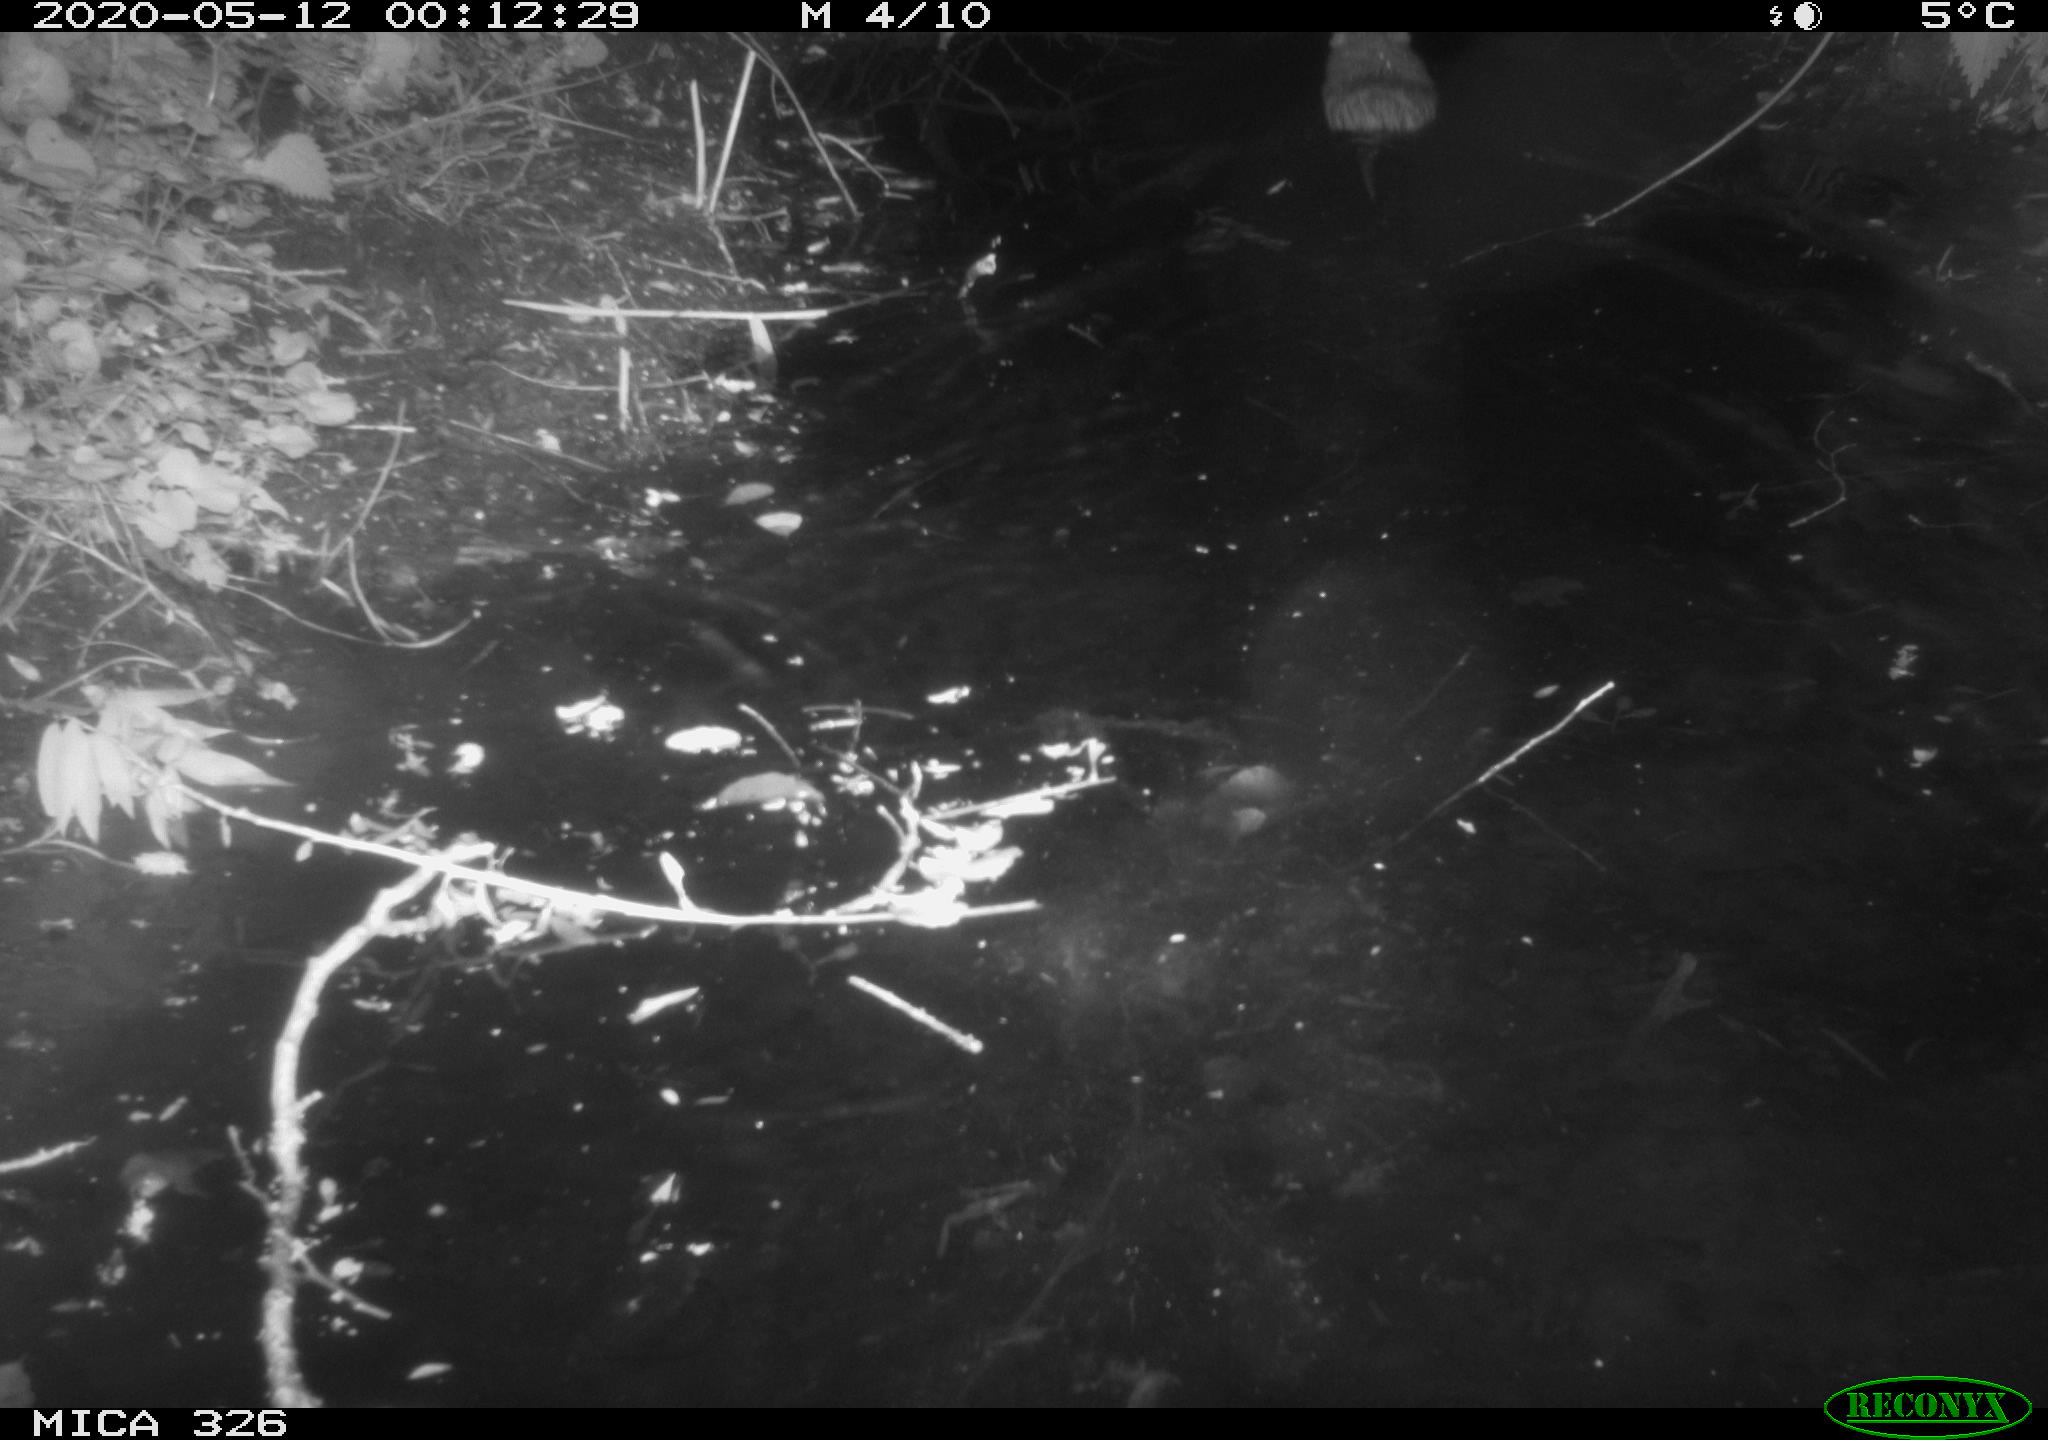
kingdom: Animalia
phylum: Chordata
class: Mammalia
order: Rodentia
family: Myocastoridae
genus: Myocastor
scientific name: Myocastor coypus
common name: Coypu
